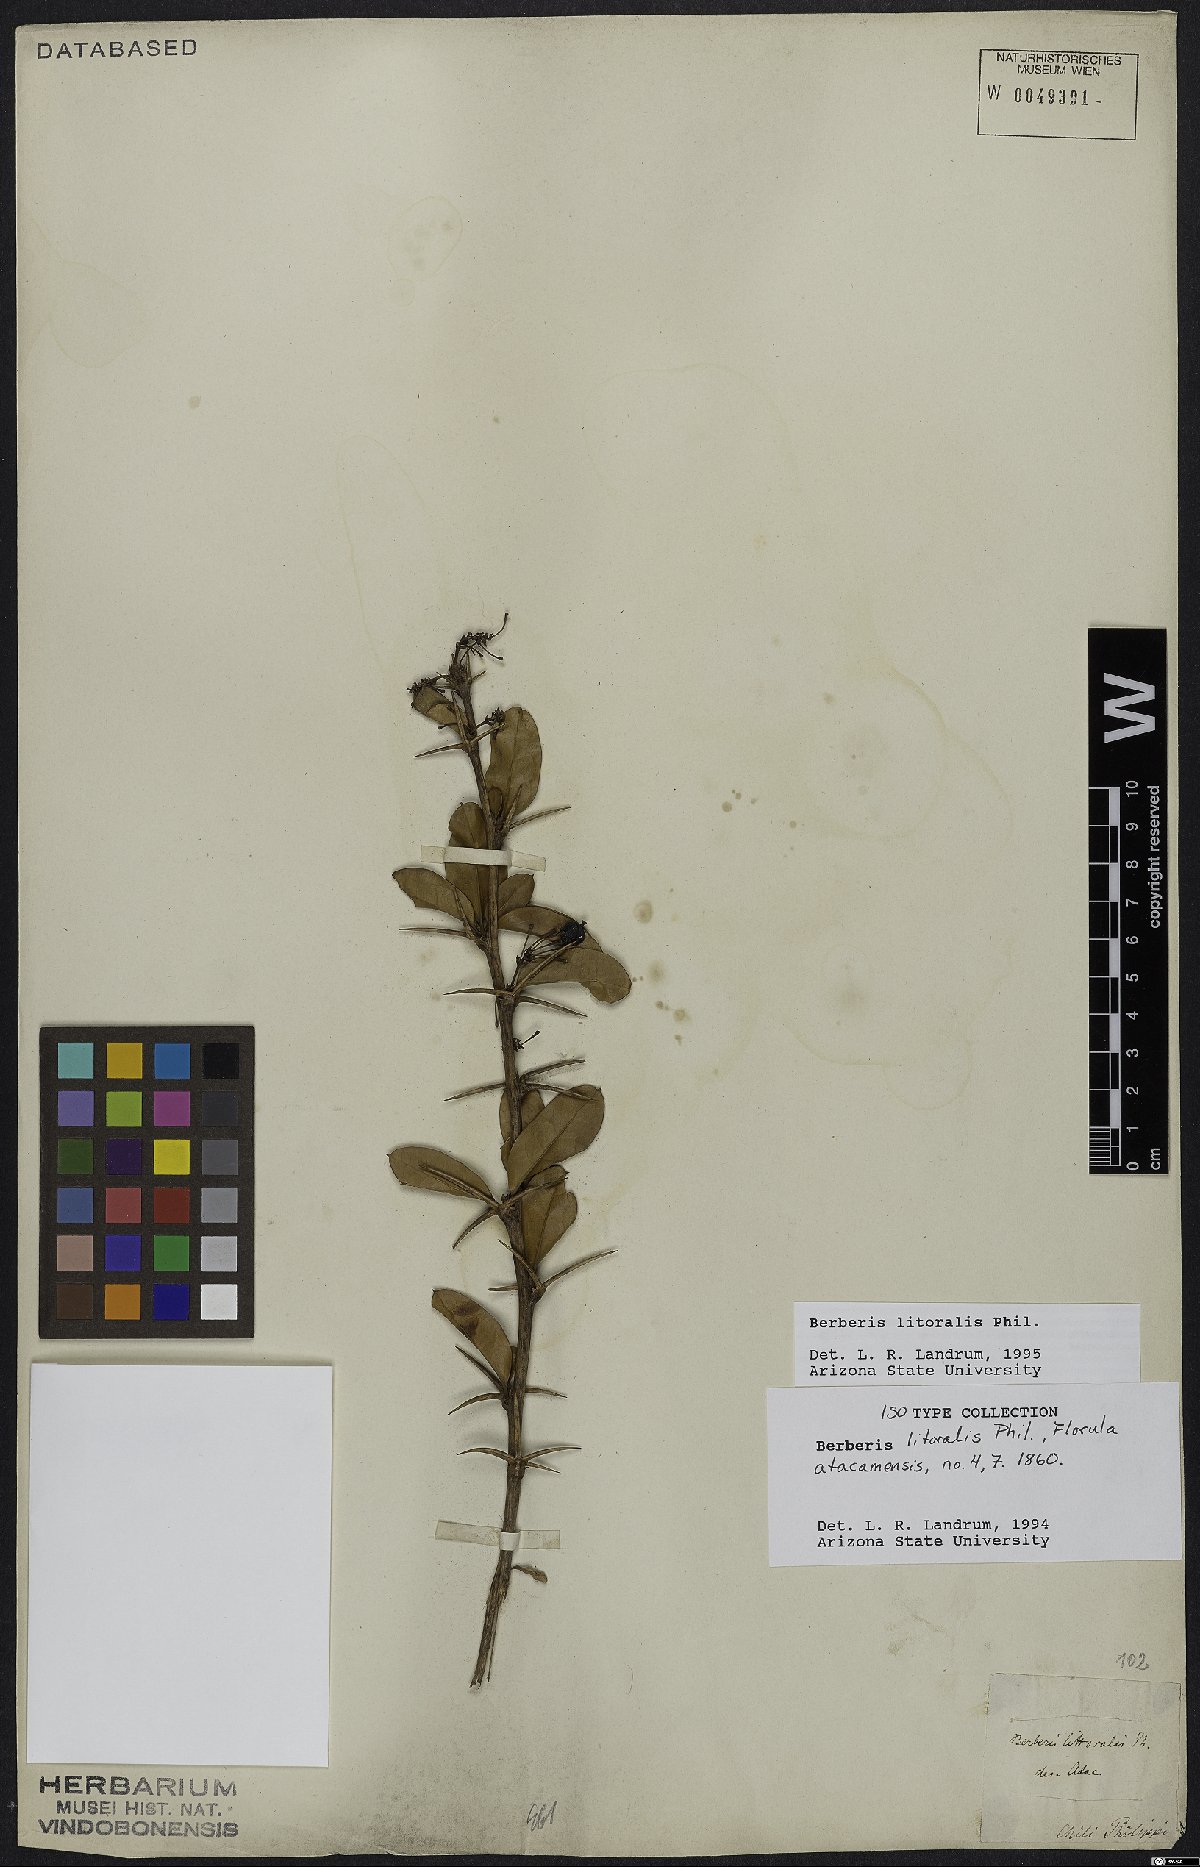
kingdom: Plantae
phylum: Tracheophyta
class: Magnoliopsida
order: Ranunculales
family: Berberidaceae
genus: Berberis
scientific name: Berberis litoralis
